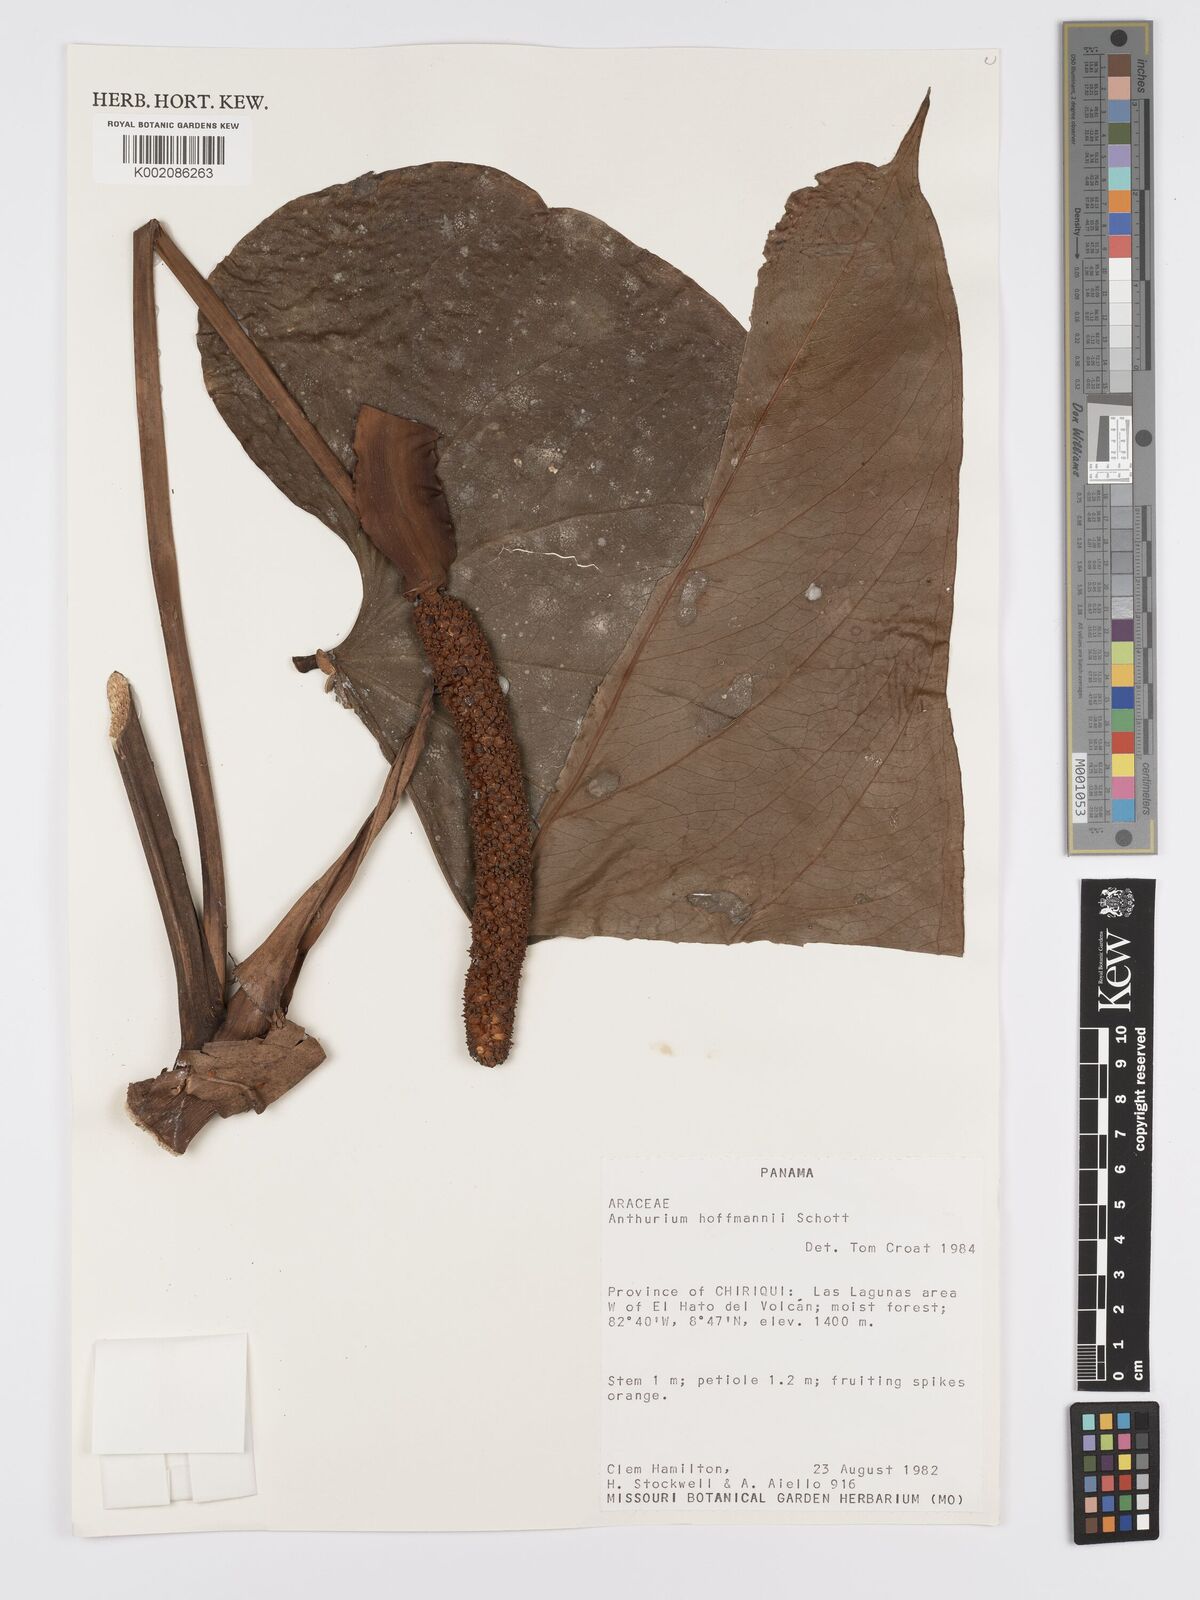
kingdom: Plantae
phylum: Tracheophyta
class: Liliopsida
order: Alismatales
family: Araceae
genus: Anthurium
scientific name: Anthurium hoffmannii
